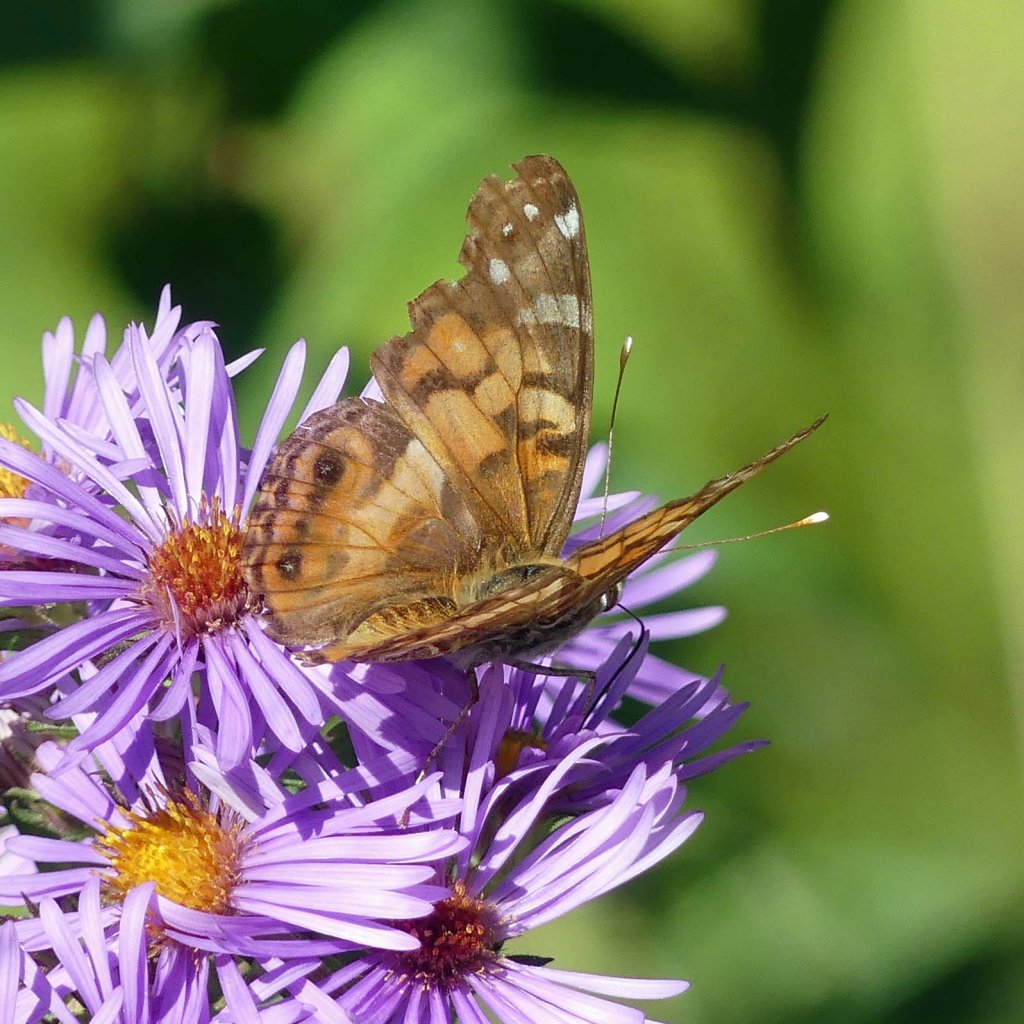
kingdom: Animalia
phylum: Arthropoda
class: Insecta
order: Lepidoptera
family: Nymphalidae
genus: Vanessa
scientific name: Vanessa virginiensis
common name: American Lady
